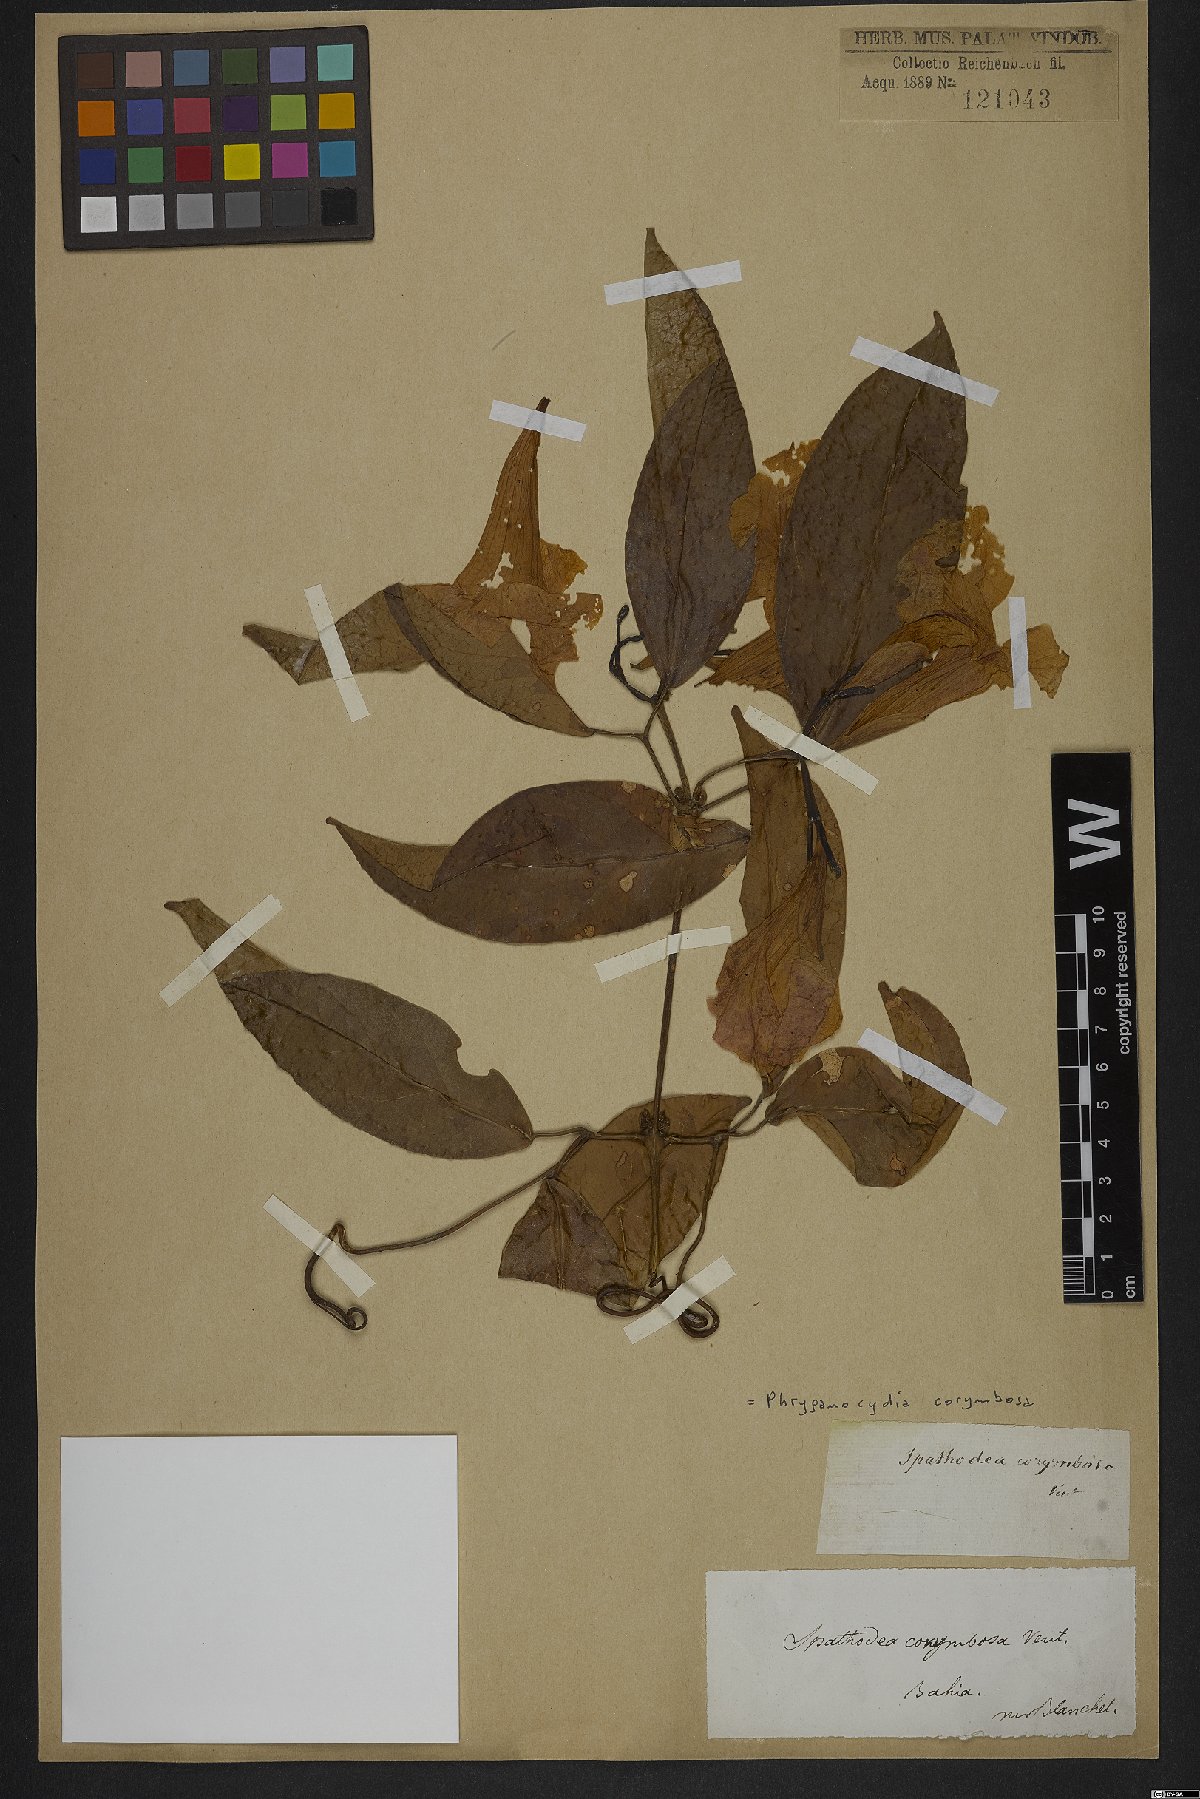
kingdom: Plantae
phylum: Tracheophyta
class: Magnoliopsida
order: Lamiales
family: Bignoniaceae
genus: Bignonia
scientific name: Bignonia corymbosa
